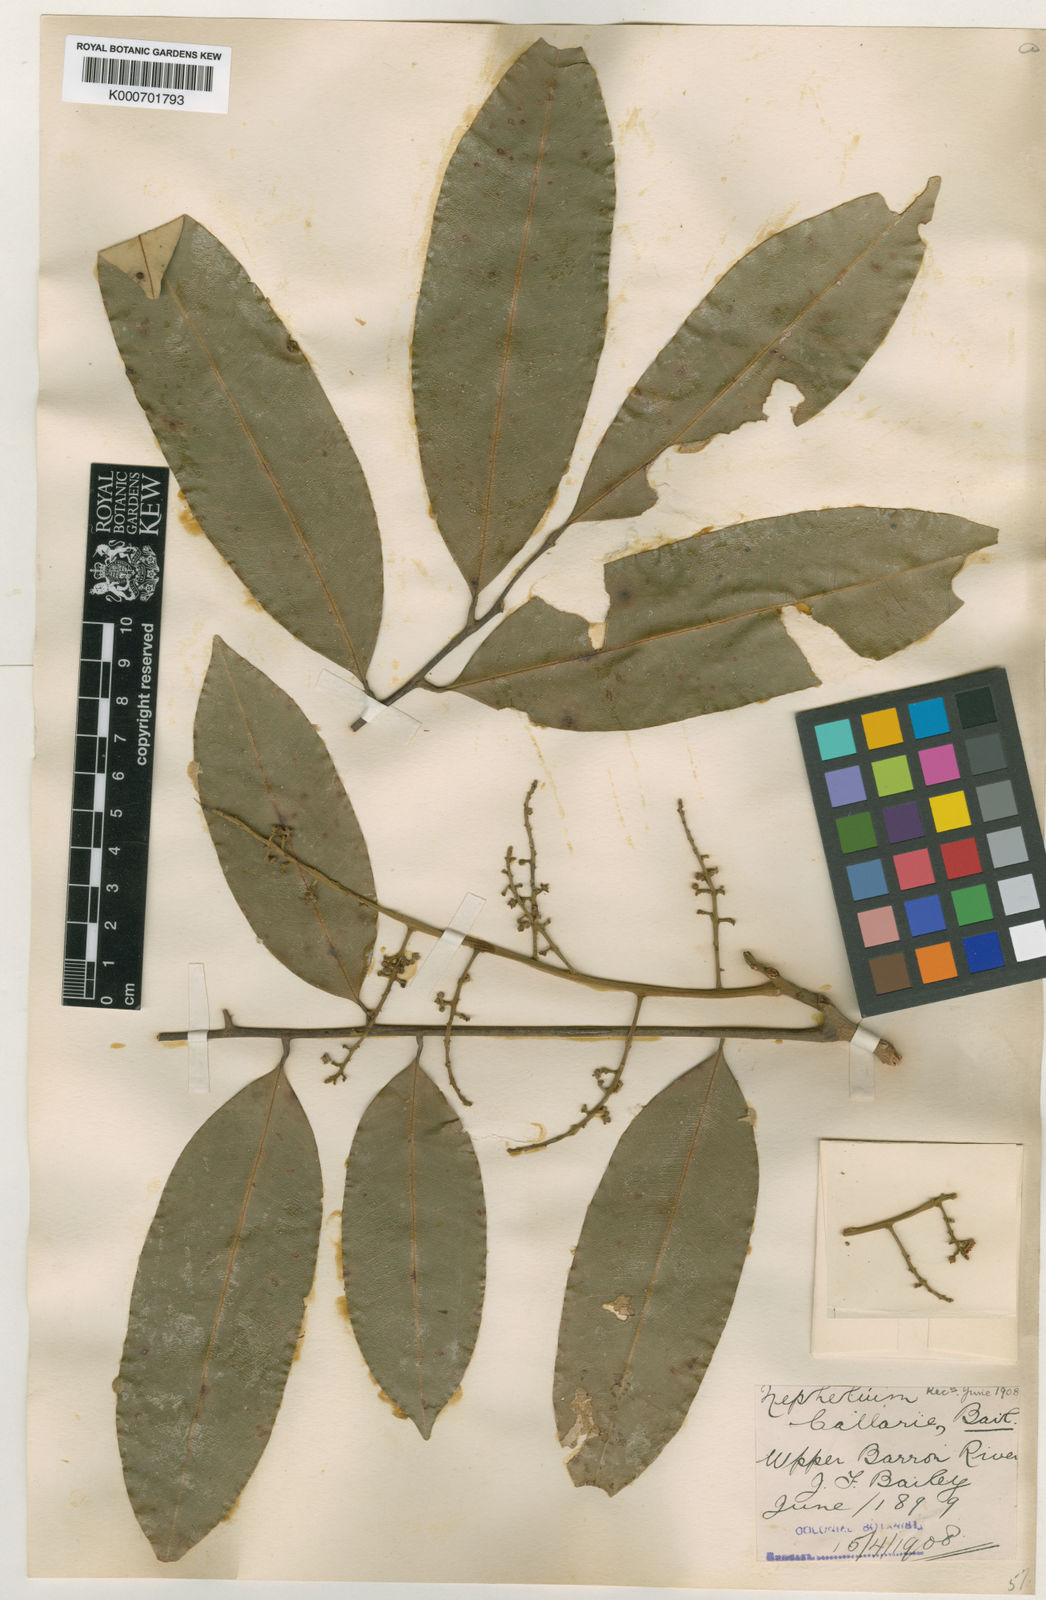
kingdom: Plantae
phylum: Tracheophyta
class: Magnoliopsida
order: Sapindales
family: Sapindaceae
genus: Castanospora
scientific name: Castanospora alphandii
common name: Brown-tamarind
